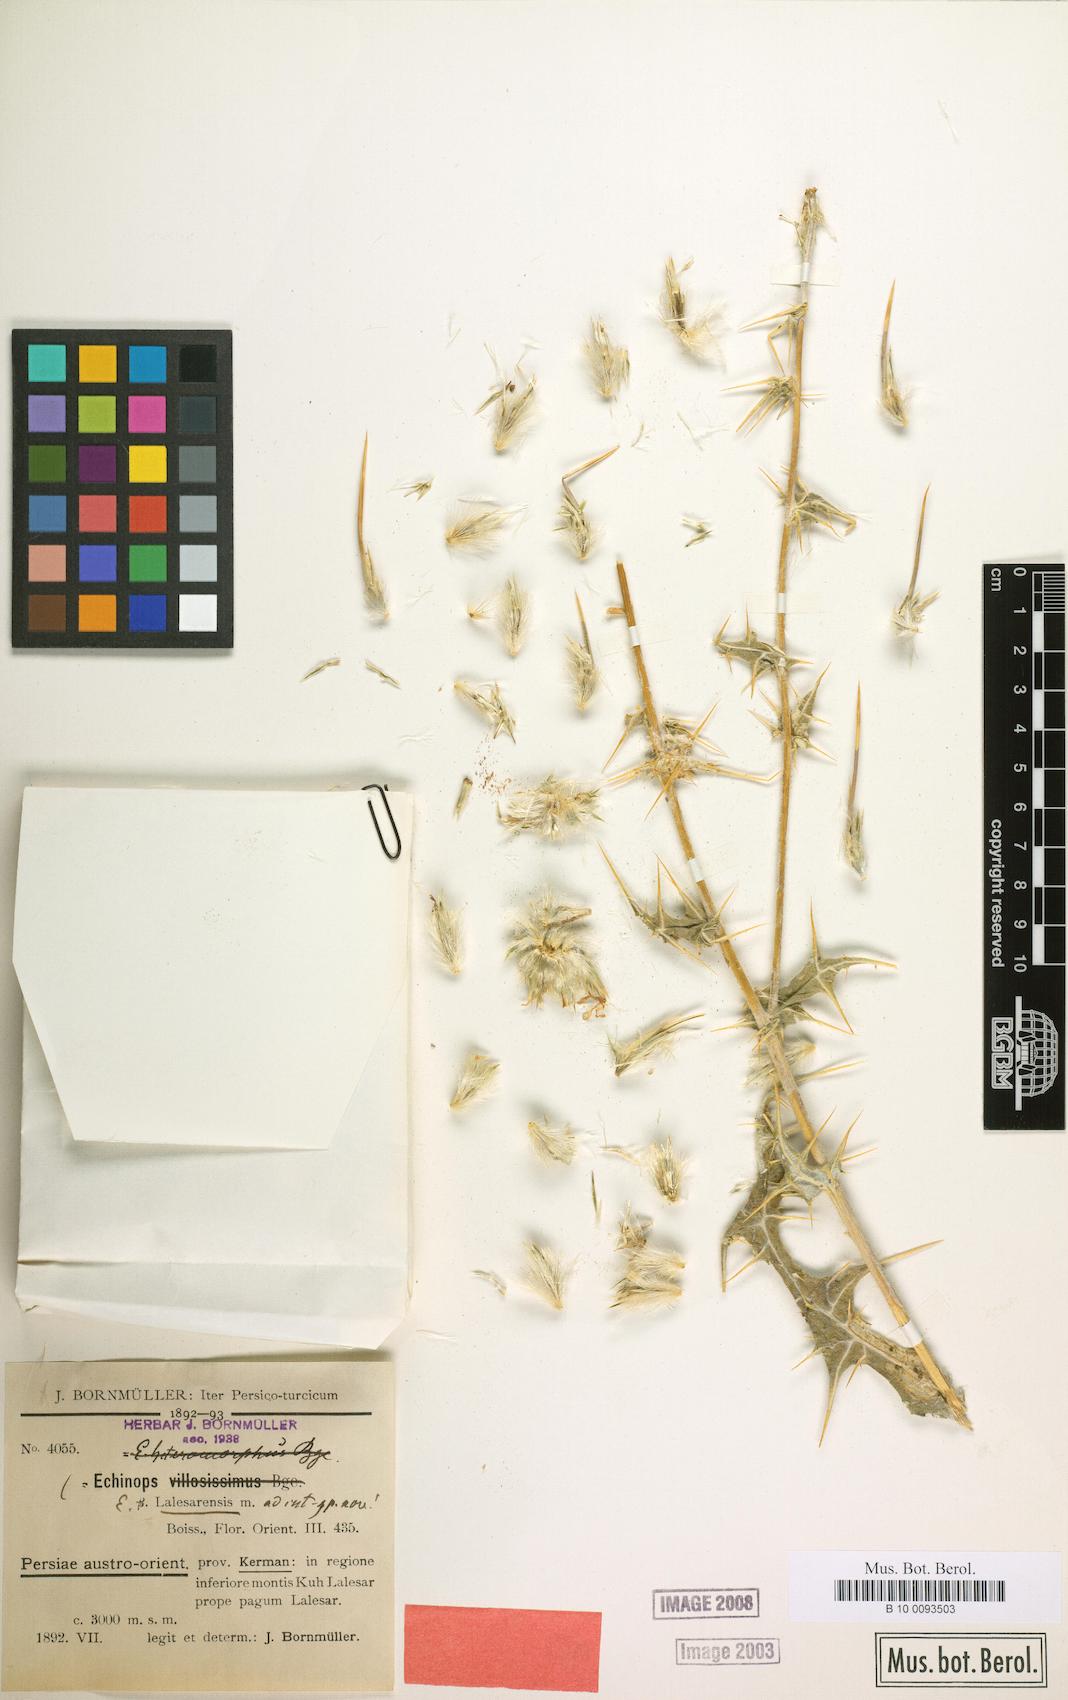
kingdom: Plantae
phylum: Tracheophyta
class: Magnoliopsida
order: Asterales
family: Asteraceae
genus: Echinops
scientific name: Echinops lalesarensis
